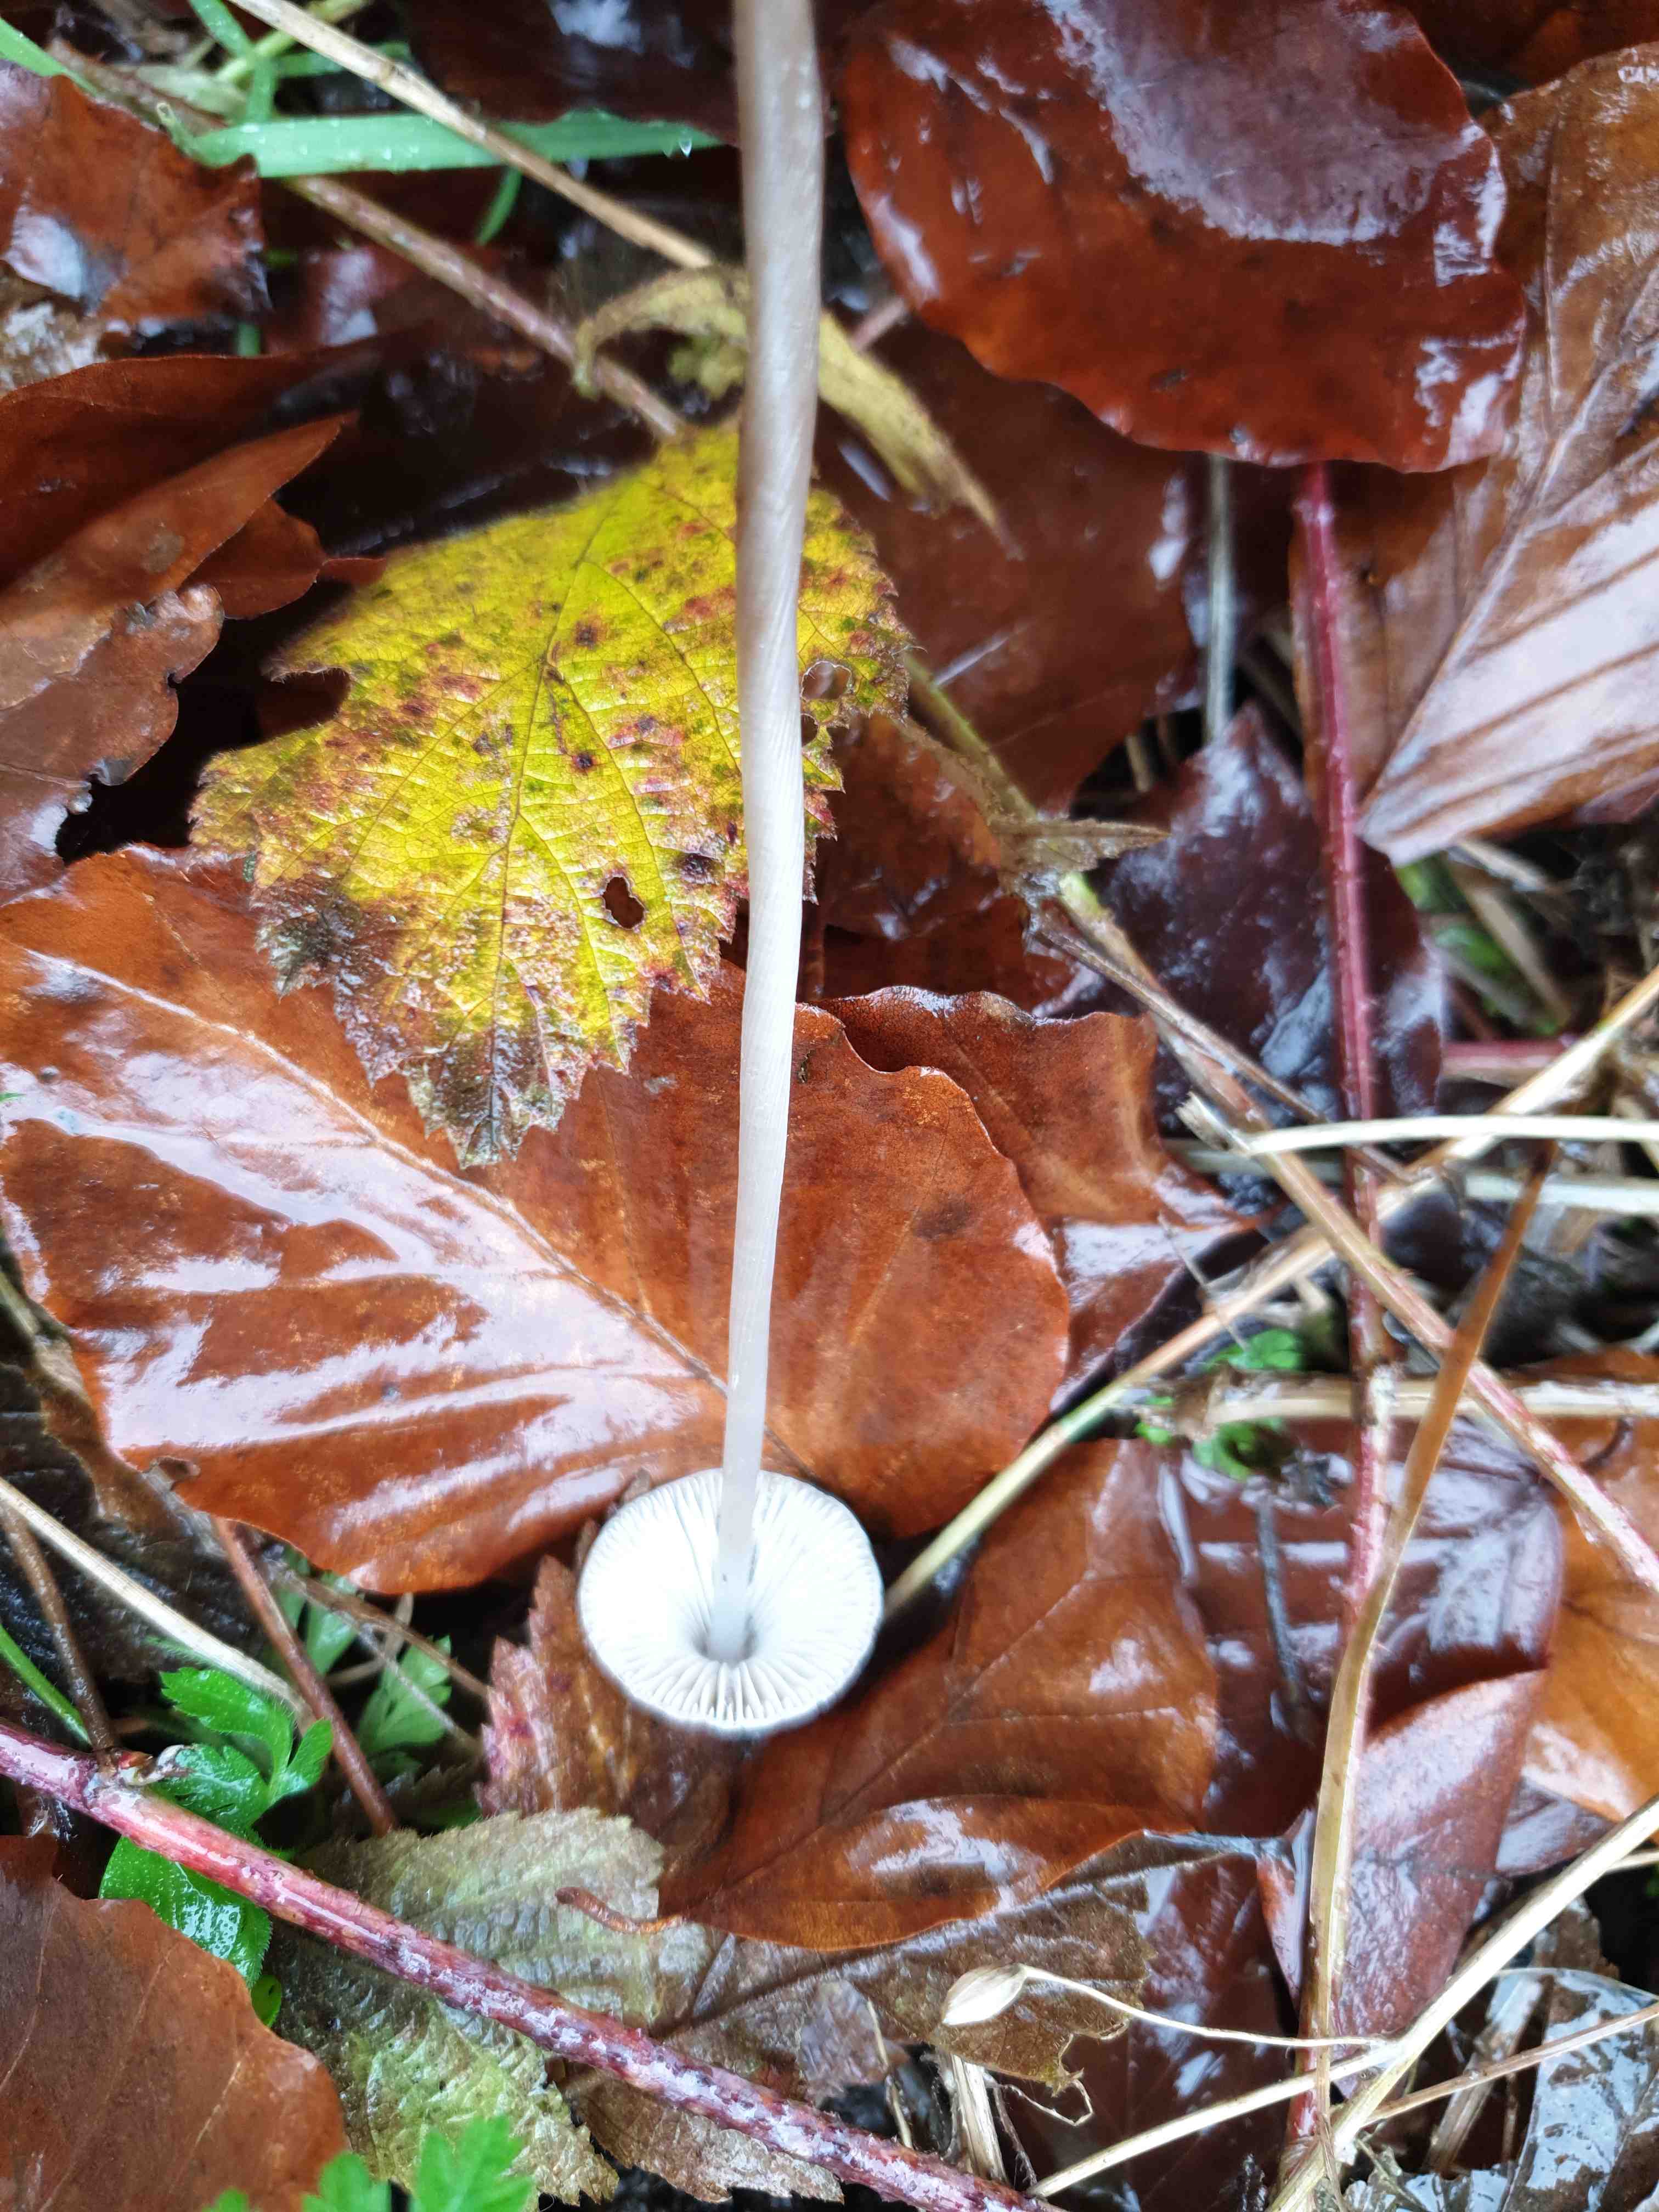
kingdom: Fungi
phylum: Basidiomycota
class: Agaricomycetes
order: Agaricales
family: Mycenaceae
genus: Mycena
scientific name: Mycena polygramma
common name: mangestribet huesvamp
